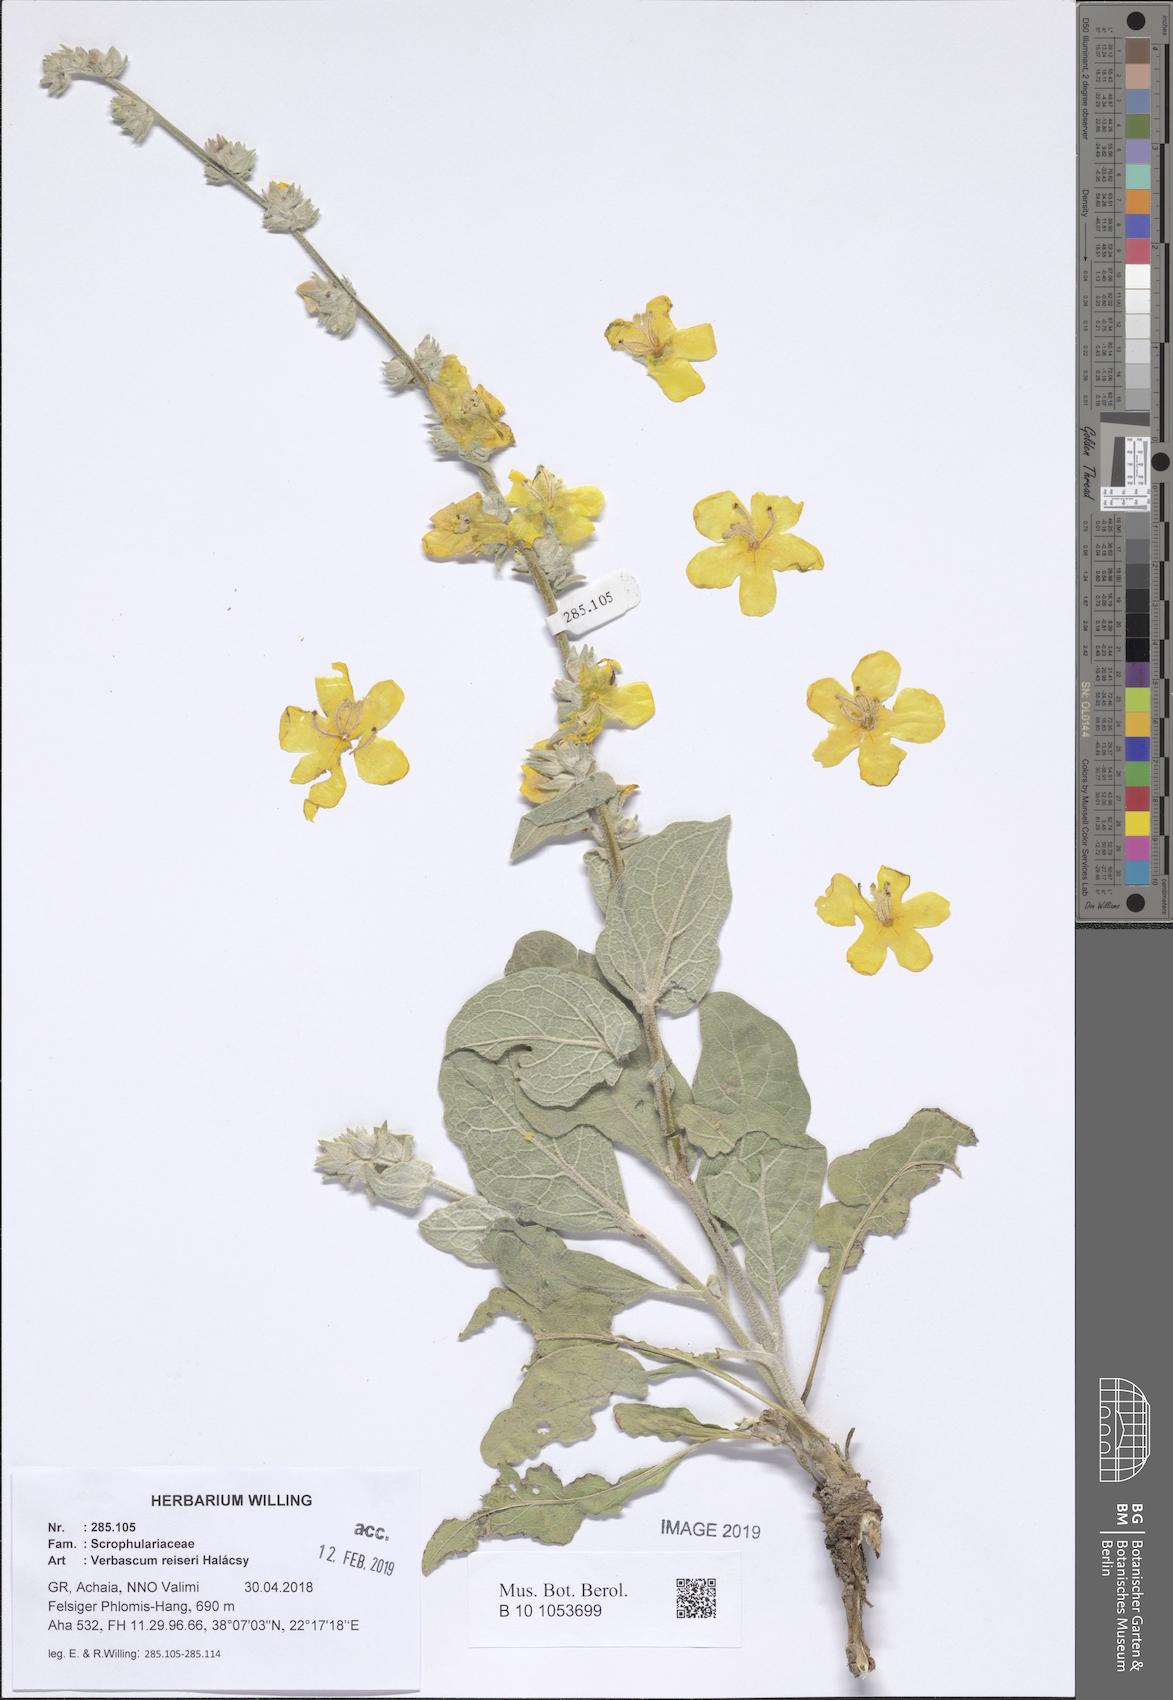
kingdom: Plantae
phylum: Tracheophyta
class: Magnoliopsida
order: Lamiales
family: Scrophulariaceae
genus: Verbascum
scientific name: Verbascum reiseri
